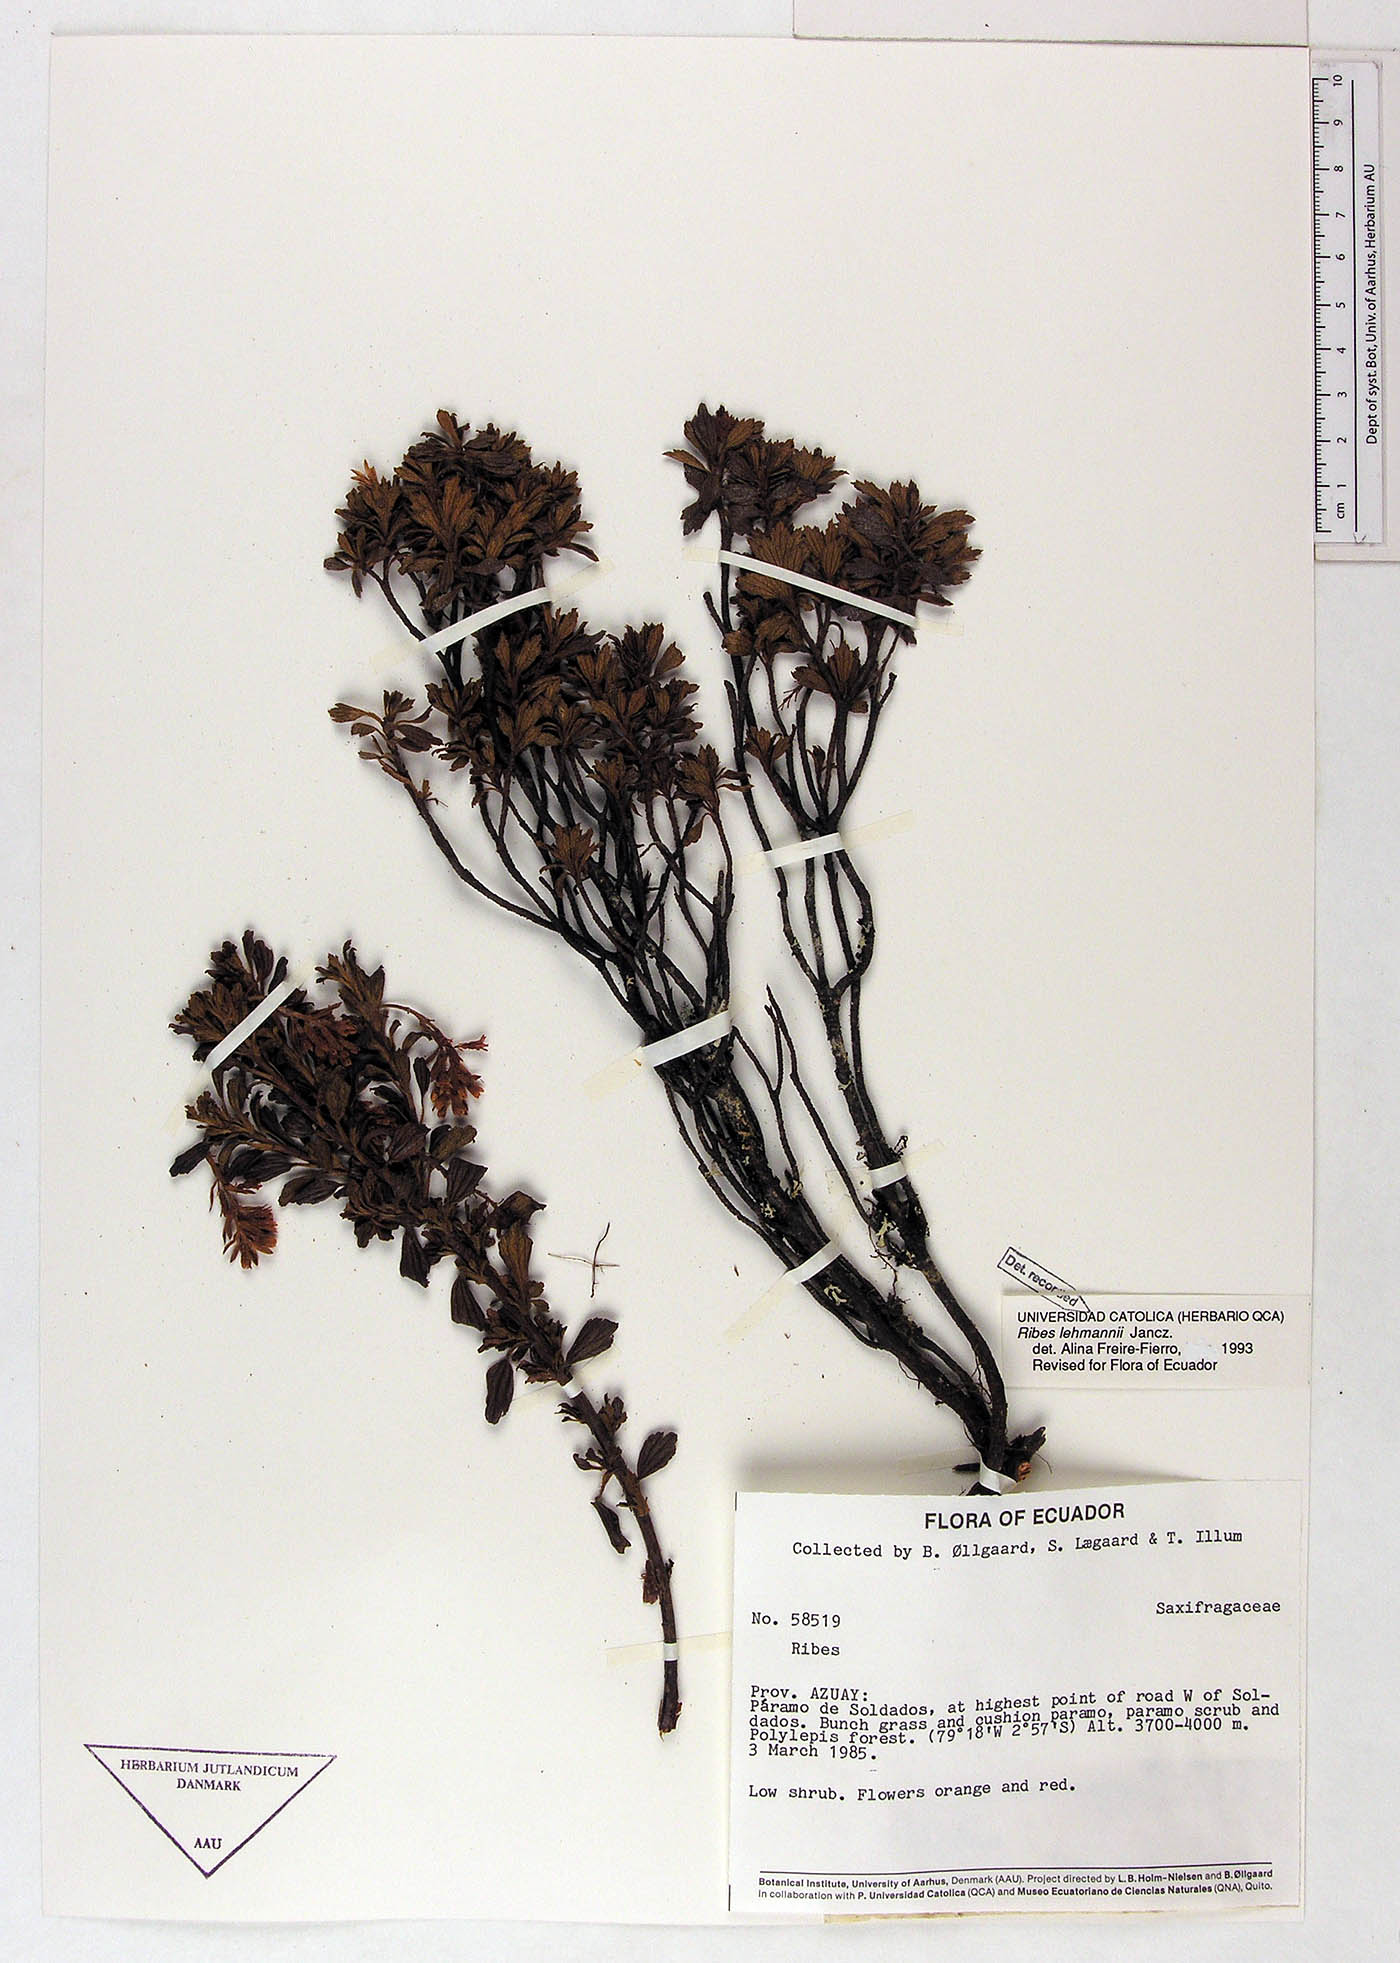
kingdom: Plantae
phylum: Tracheophyta
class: Magnoliopsida
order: Saxifragales
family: Grossulariaceae
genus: Ribes
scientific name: Ribes lehmannii
